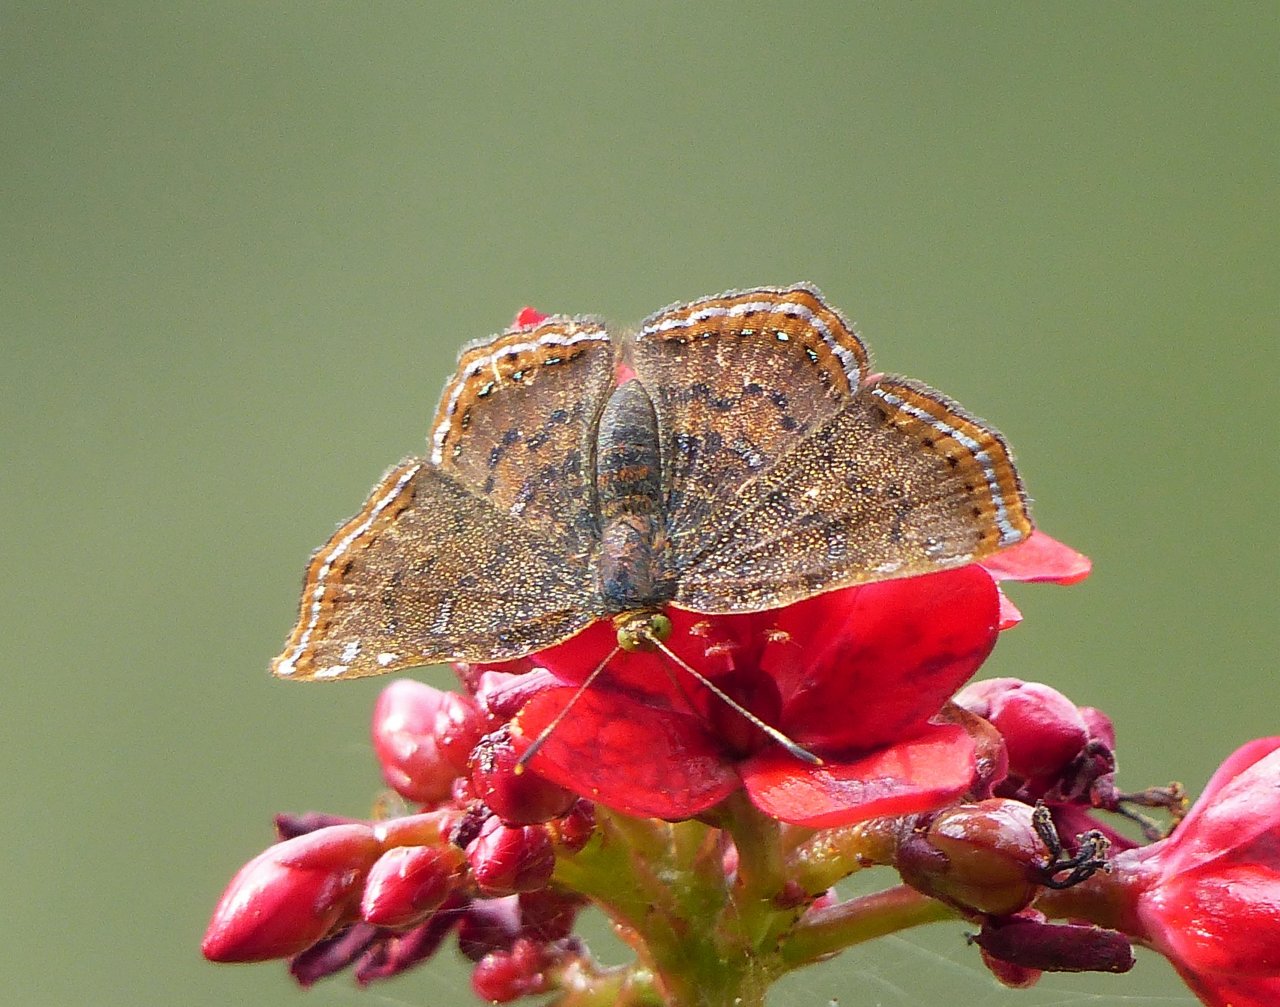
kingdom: Animalia
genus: Caria
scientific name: Caria ino
